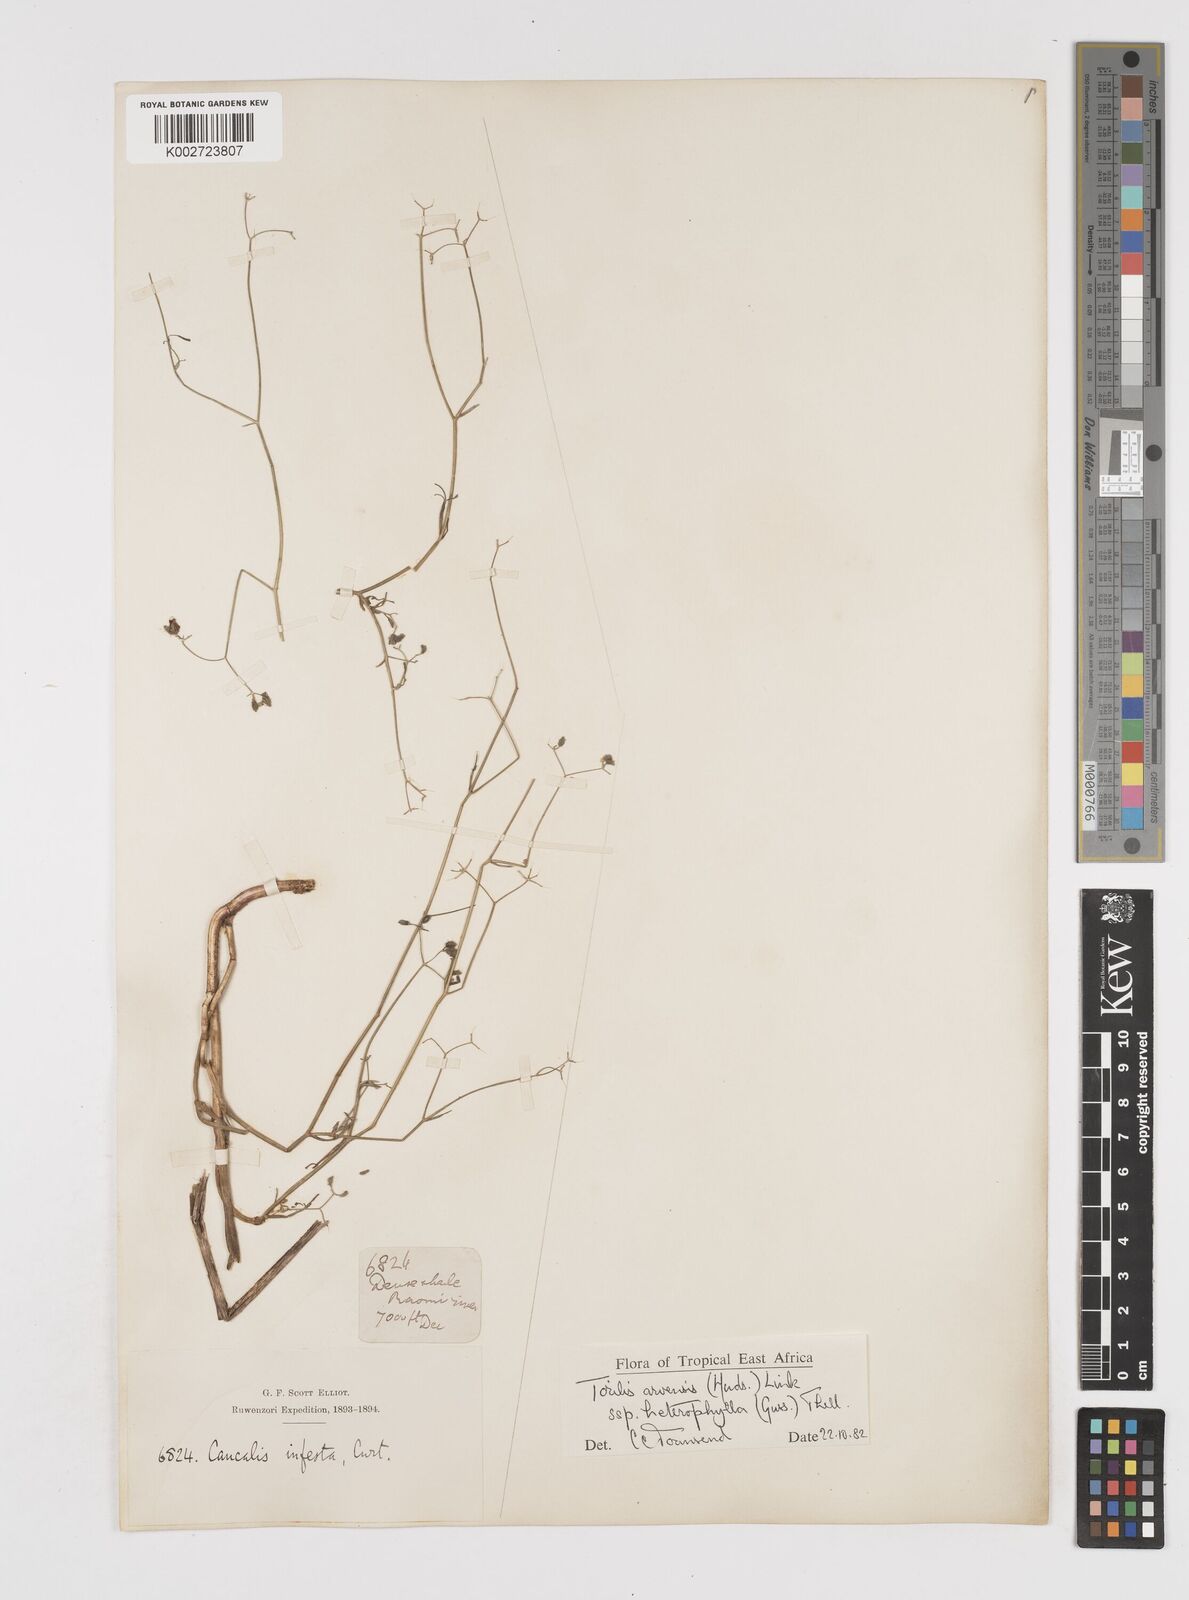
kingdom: Plantae
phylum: Tracheophyta
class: Magnoliopsida
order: Apiales
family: Apiaceae
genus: Torilis
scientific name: Torilis arvensis
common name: Spreading hedge-parsley
